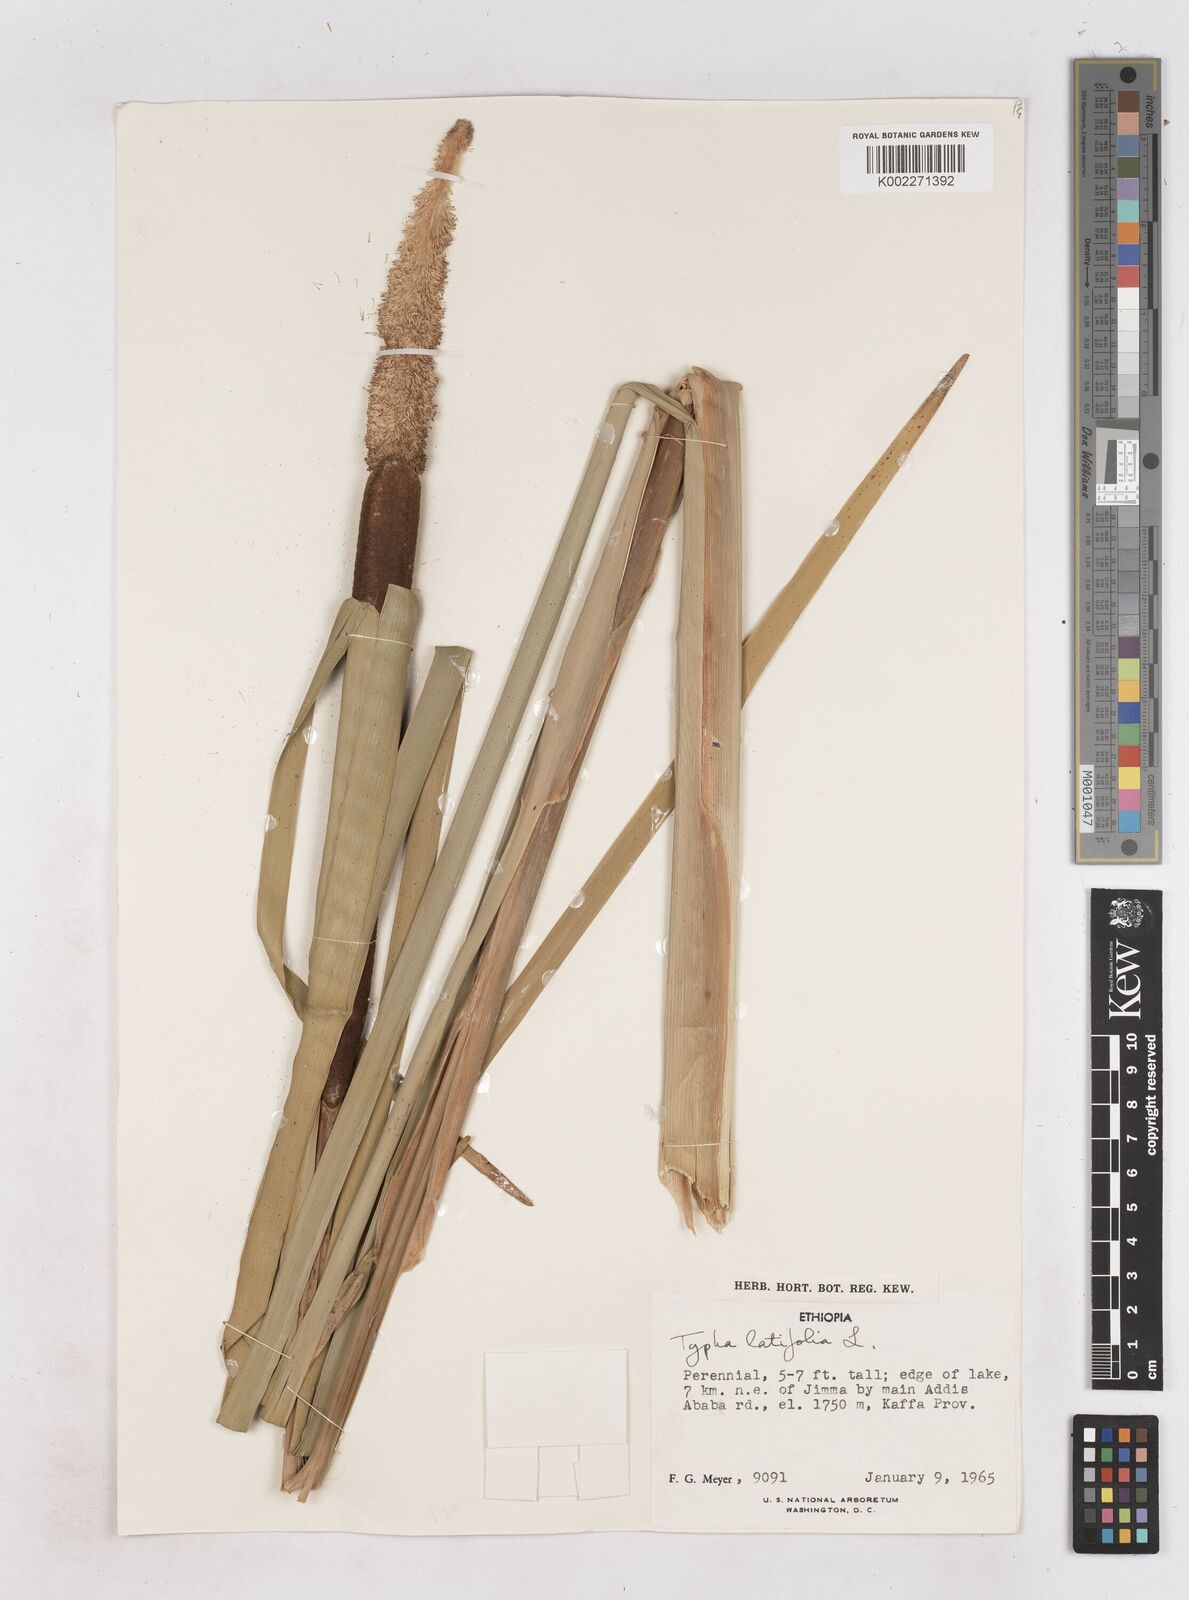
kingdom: Plantae
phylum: Tracheophyta
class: Liliopsida
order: Poales
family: Typhaceae
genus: Typha
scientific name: Typha latifolia
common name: Broadleaf cattail
